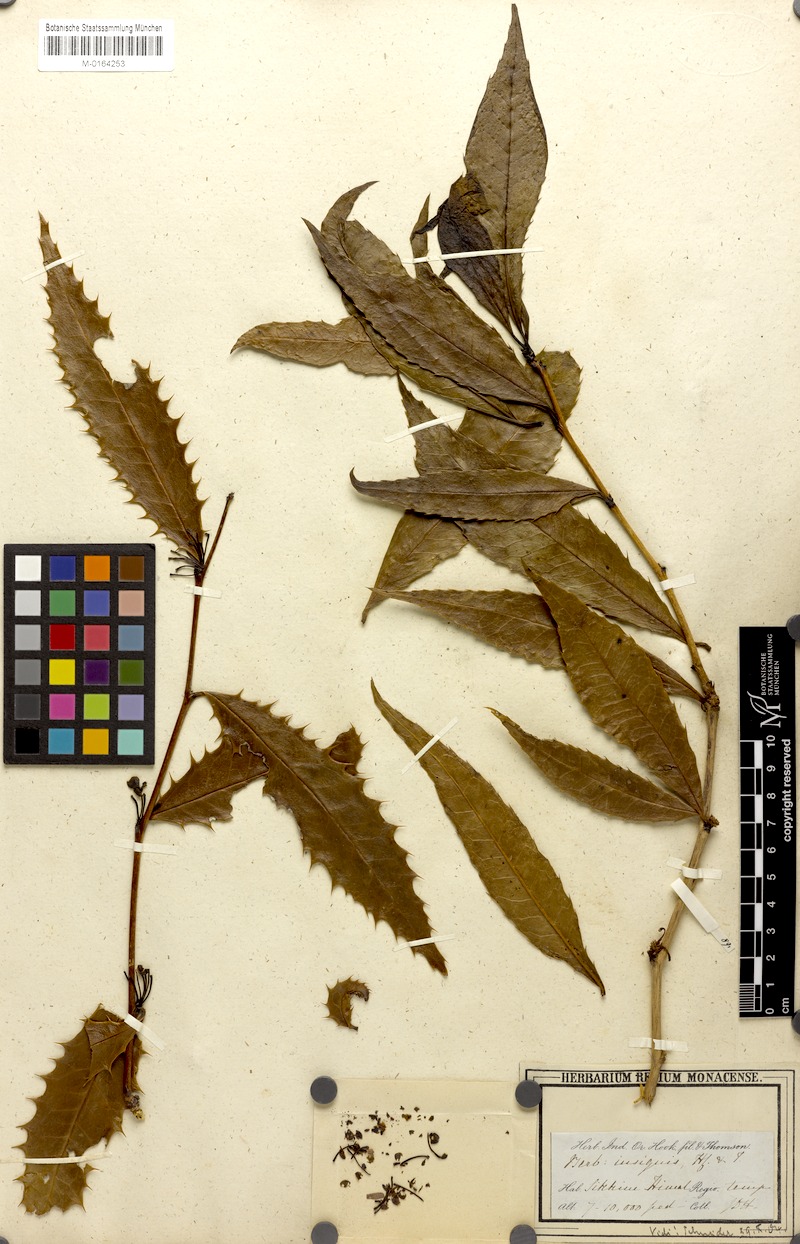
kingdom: Plantae
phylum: Tracheophyta
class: Magnoliopsida
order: Ranunculales
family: Berberidaceae
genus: Berberis
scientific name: Berberis insignis
